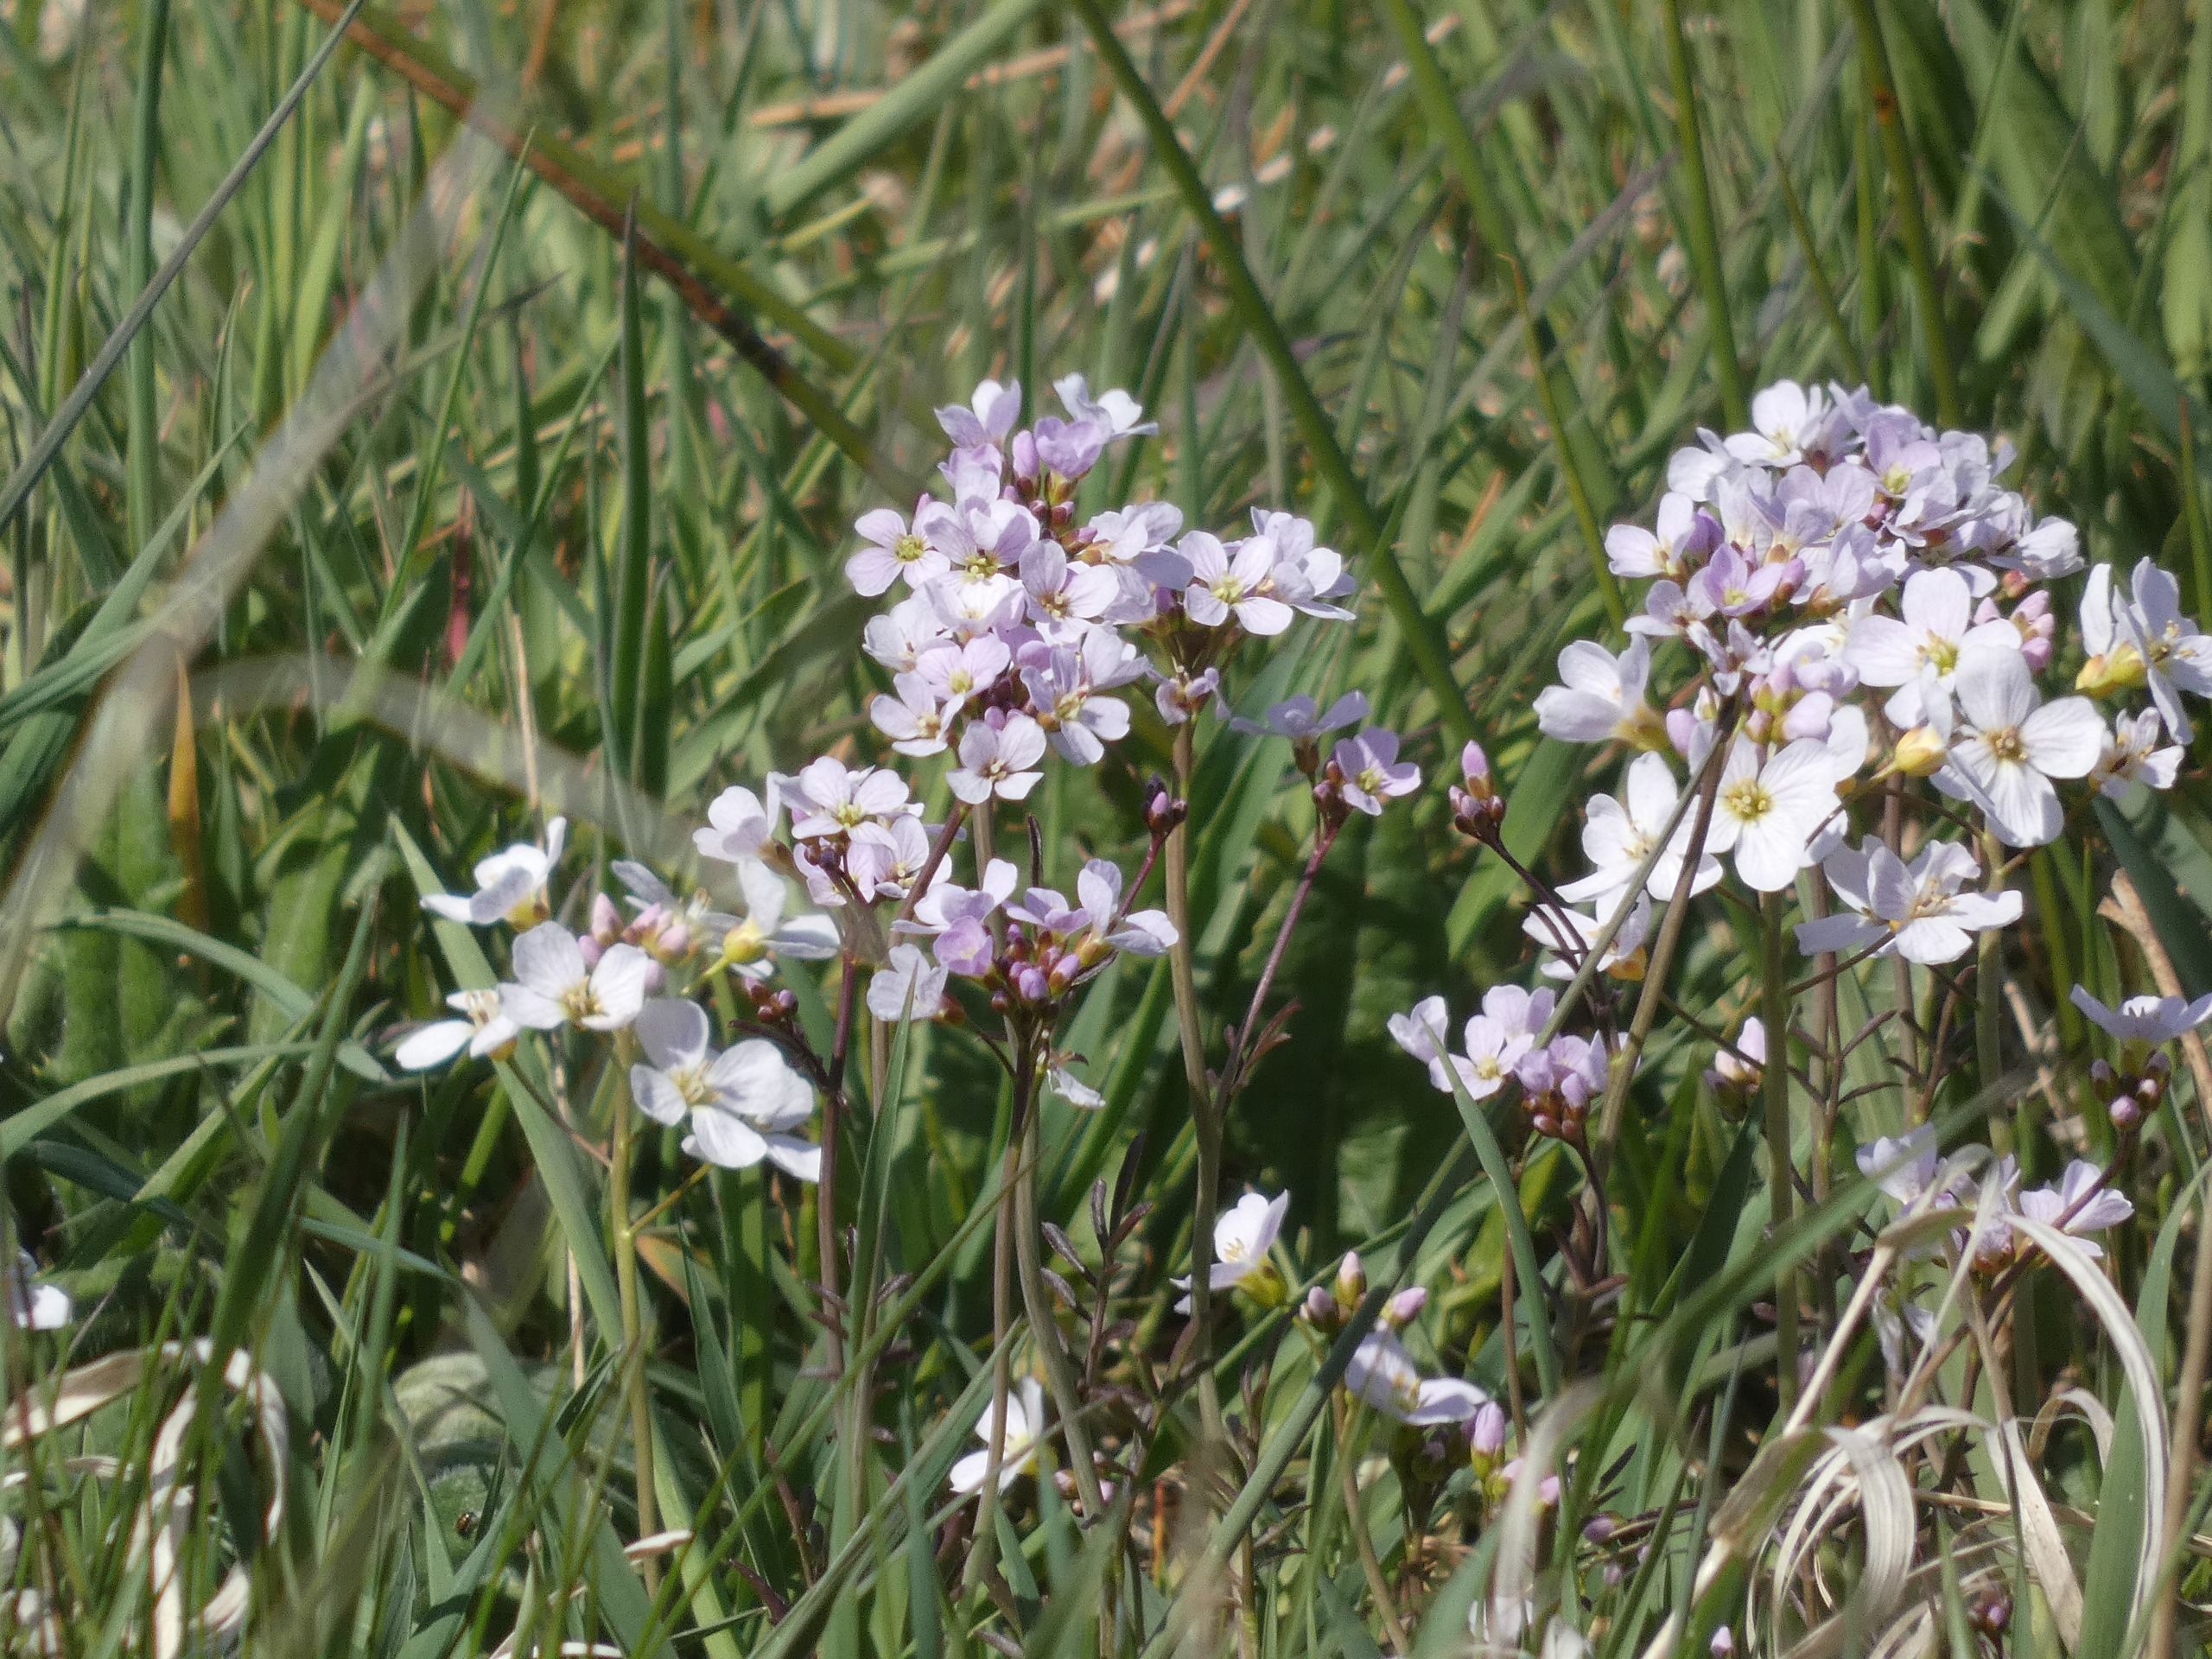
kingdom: Plantae
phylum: Tracheophyta
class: Magnoliopsida
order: Brassicales
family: Brassicaceae
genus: Cardamine
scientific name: Cardamine pratensis
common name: Engkarse
